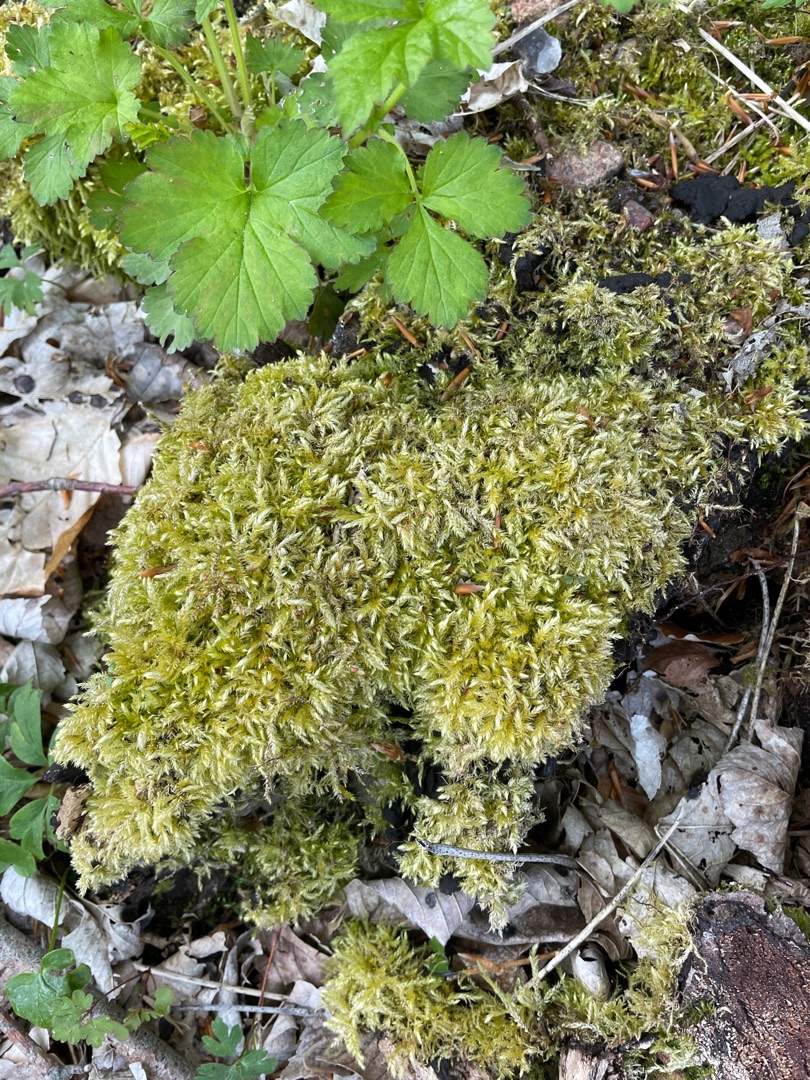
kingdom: Plantae
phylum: Bryophyta
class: Bryopsida
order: Hypnales
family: Brachytheciaceae
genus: Brachythecium
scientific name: Brachythecium rutabulum
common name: Almindelig kortkapsel
